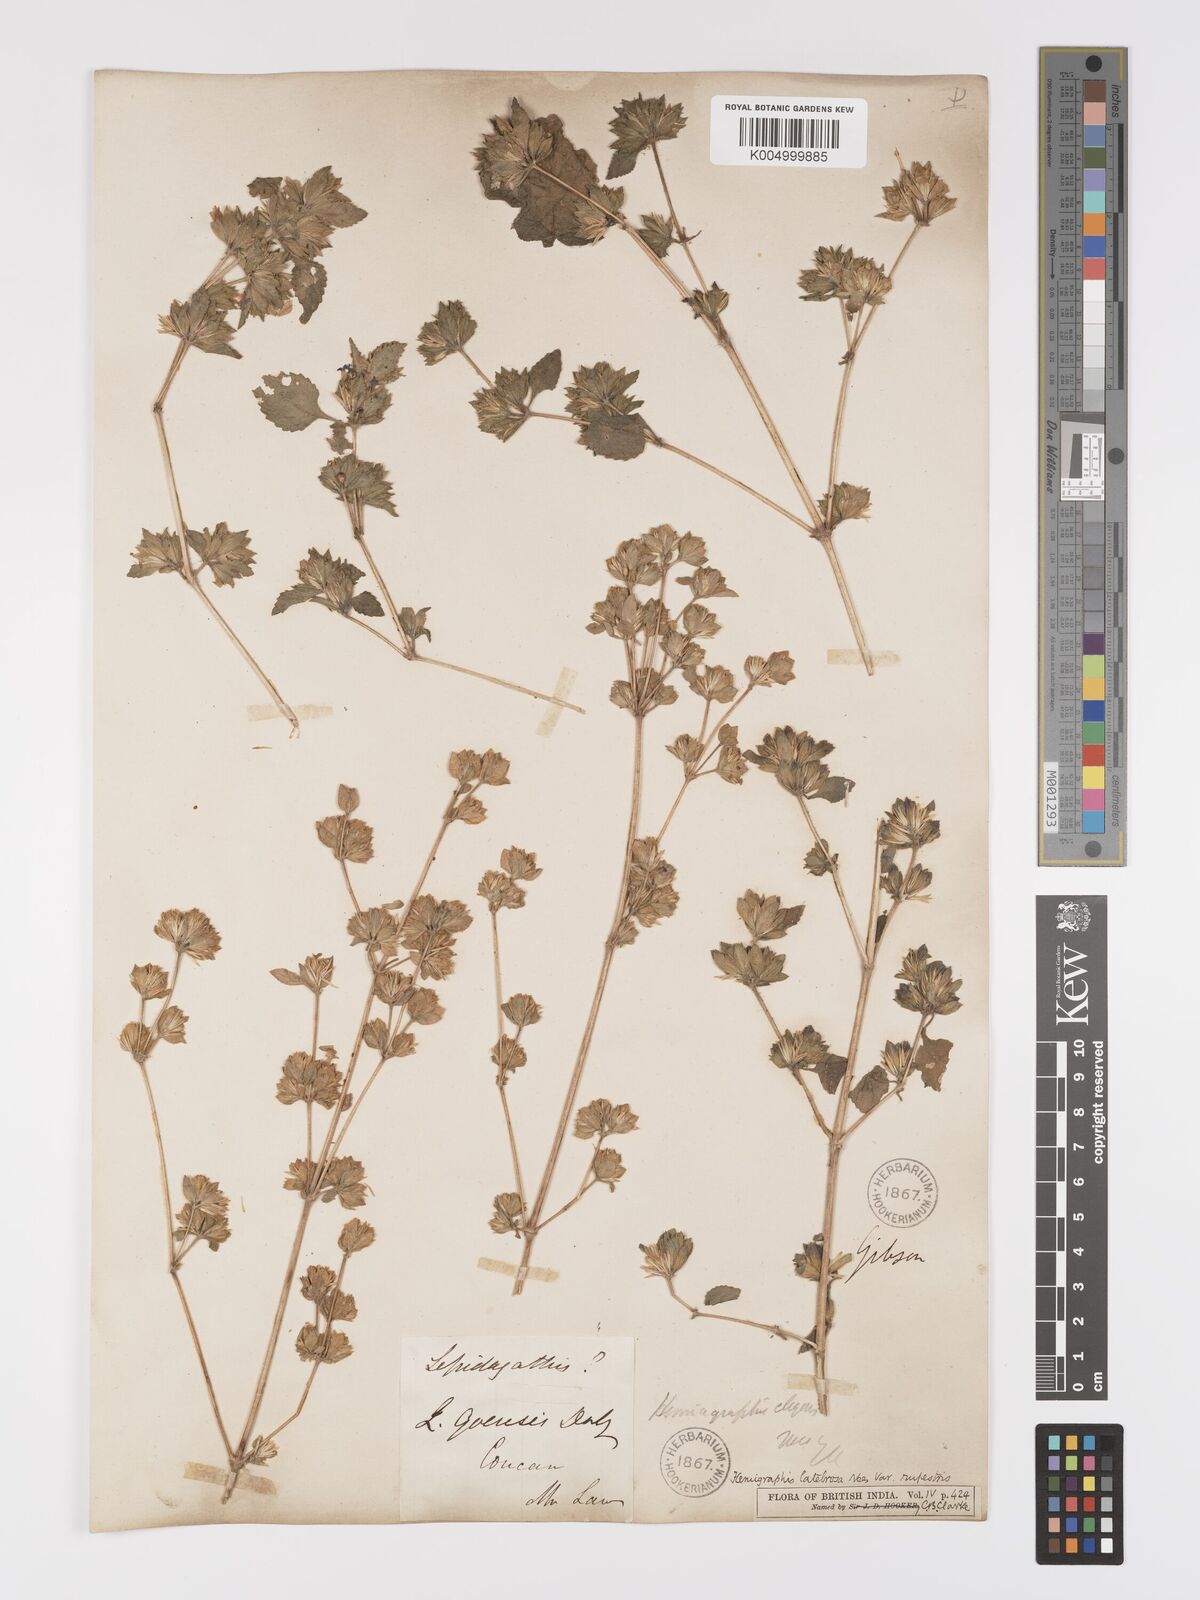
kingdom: Plantae
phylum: Tracheophyta
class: Magnoliopsida
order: Lamiales
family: Acanthaceae
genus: Strobilanthes
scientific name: Strobilanthes pavala
